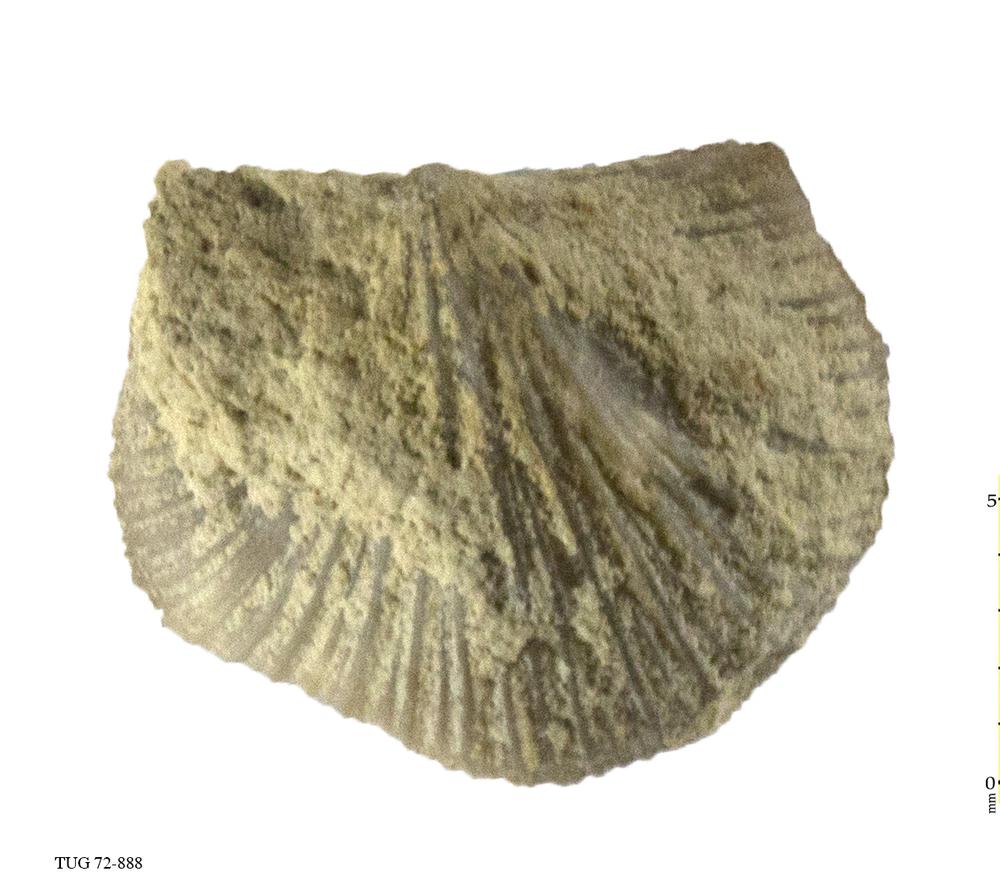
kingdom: Animalia
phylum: Brachiopoda
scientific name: Brachiopoda
